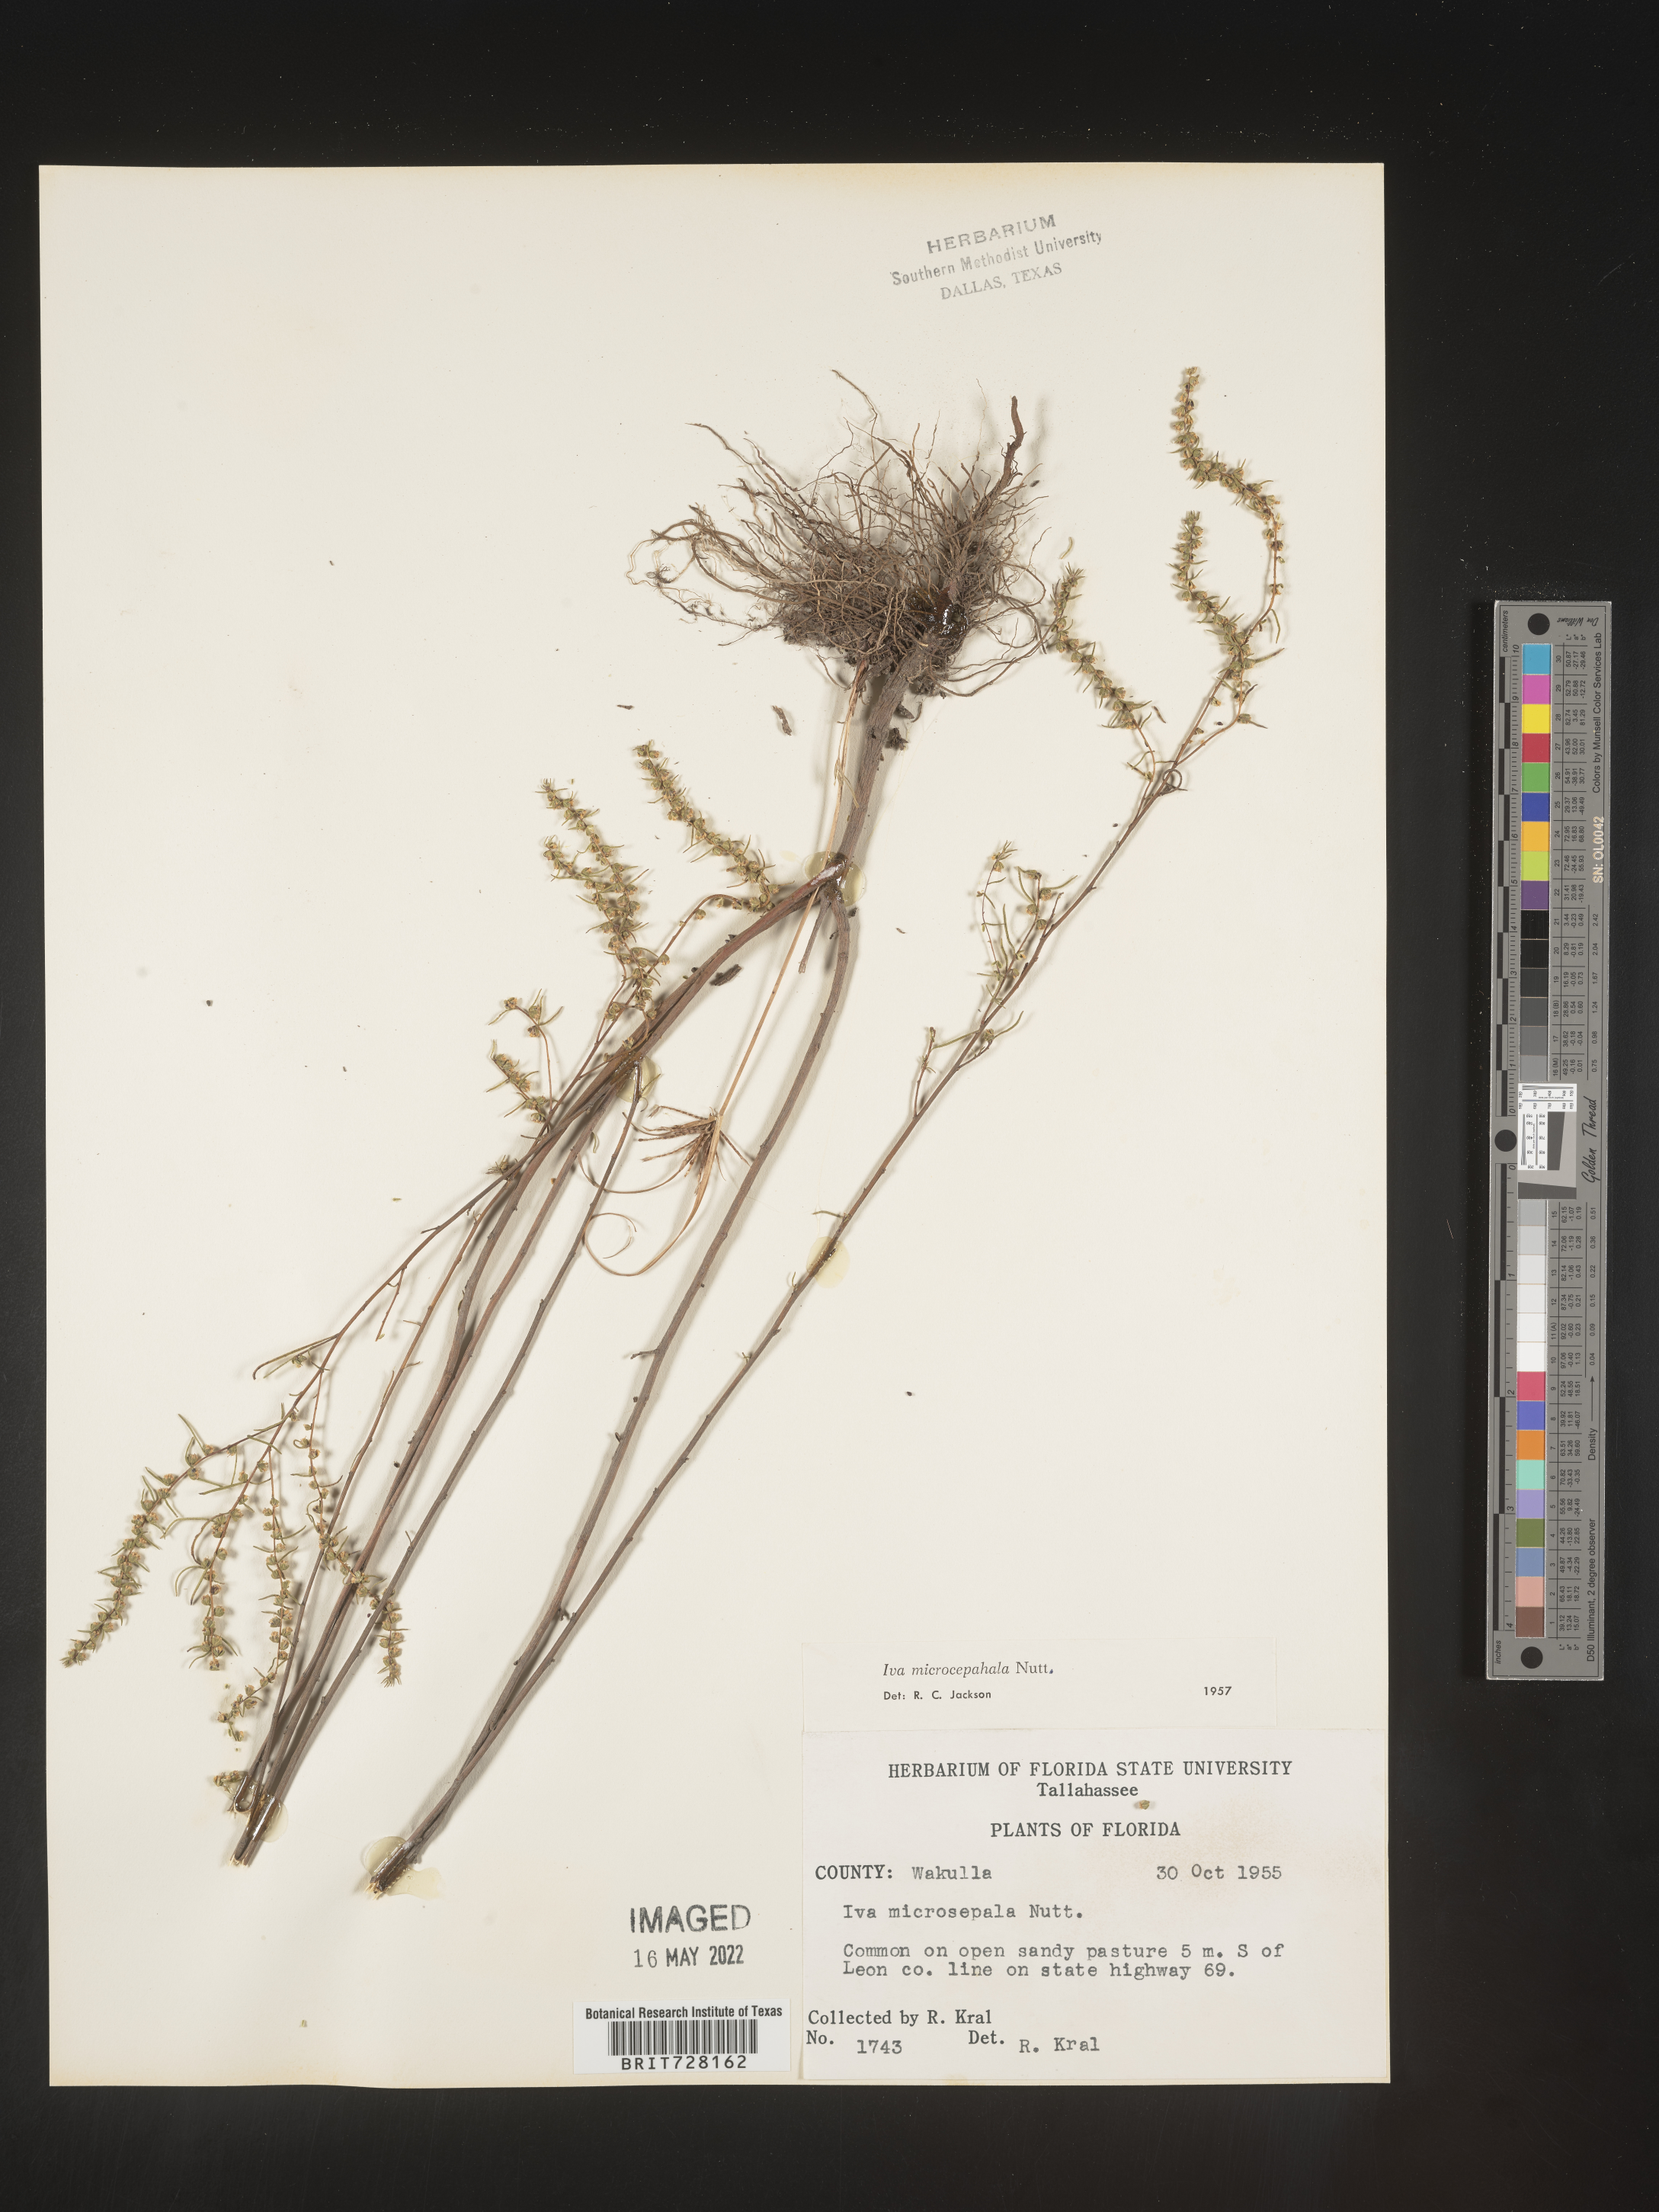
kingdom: Plantae
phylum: Tracheophyta
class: Magnoliopsida
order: Asterales
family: Asteraceae
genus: Iva
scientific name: Iva microcephala
